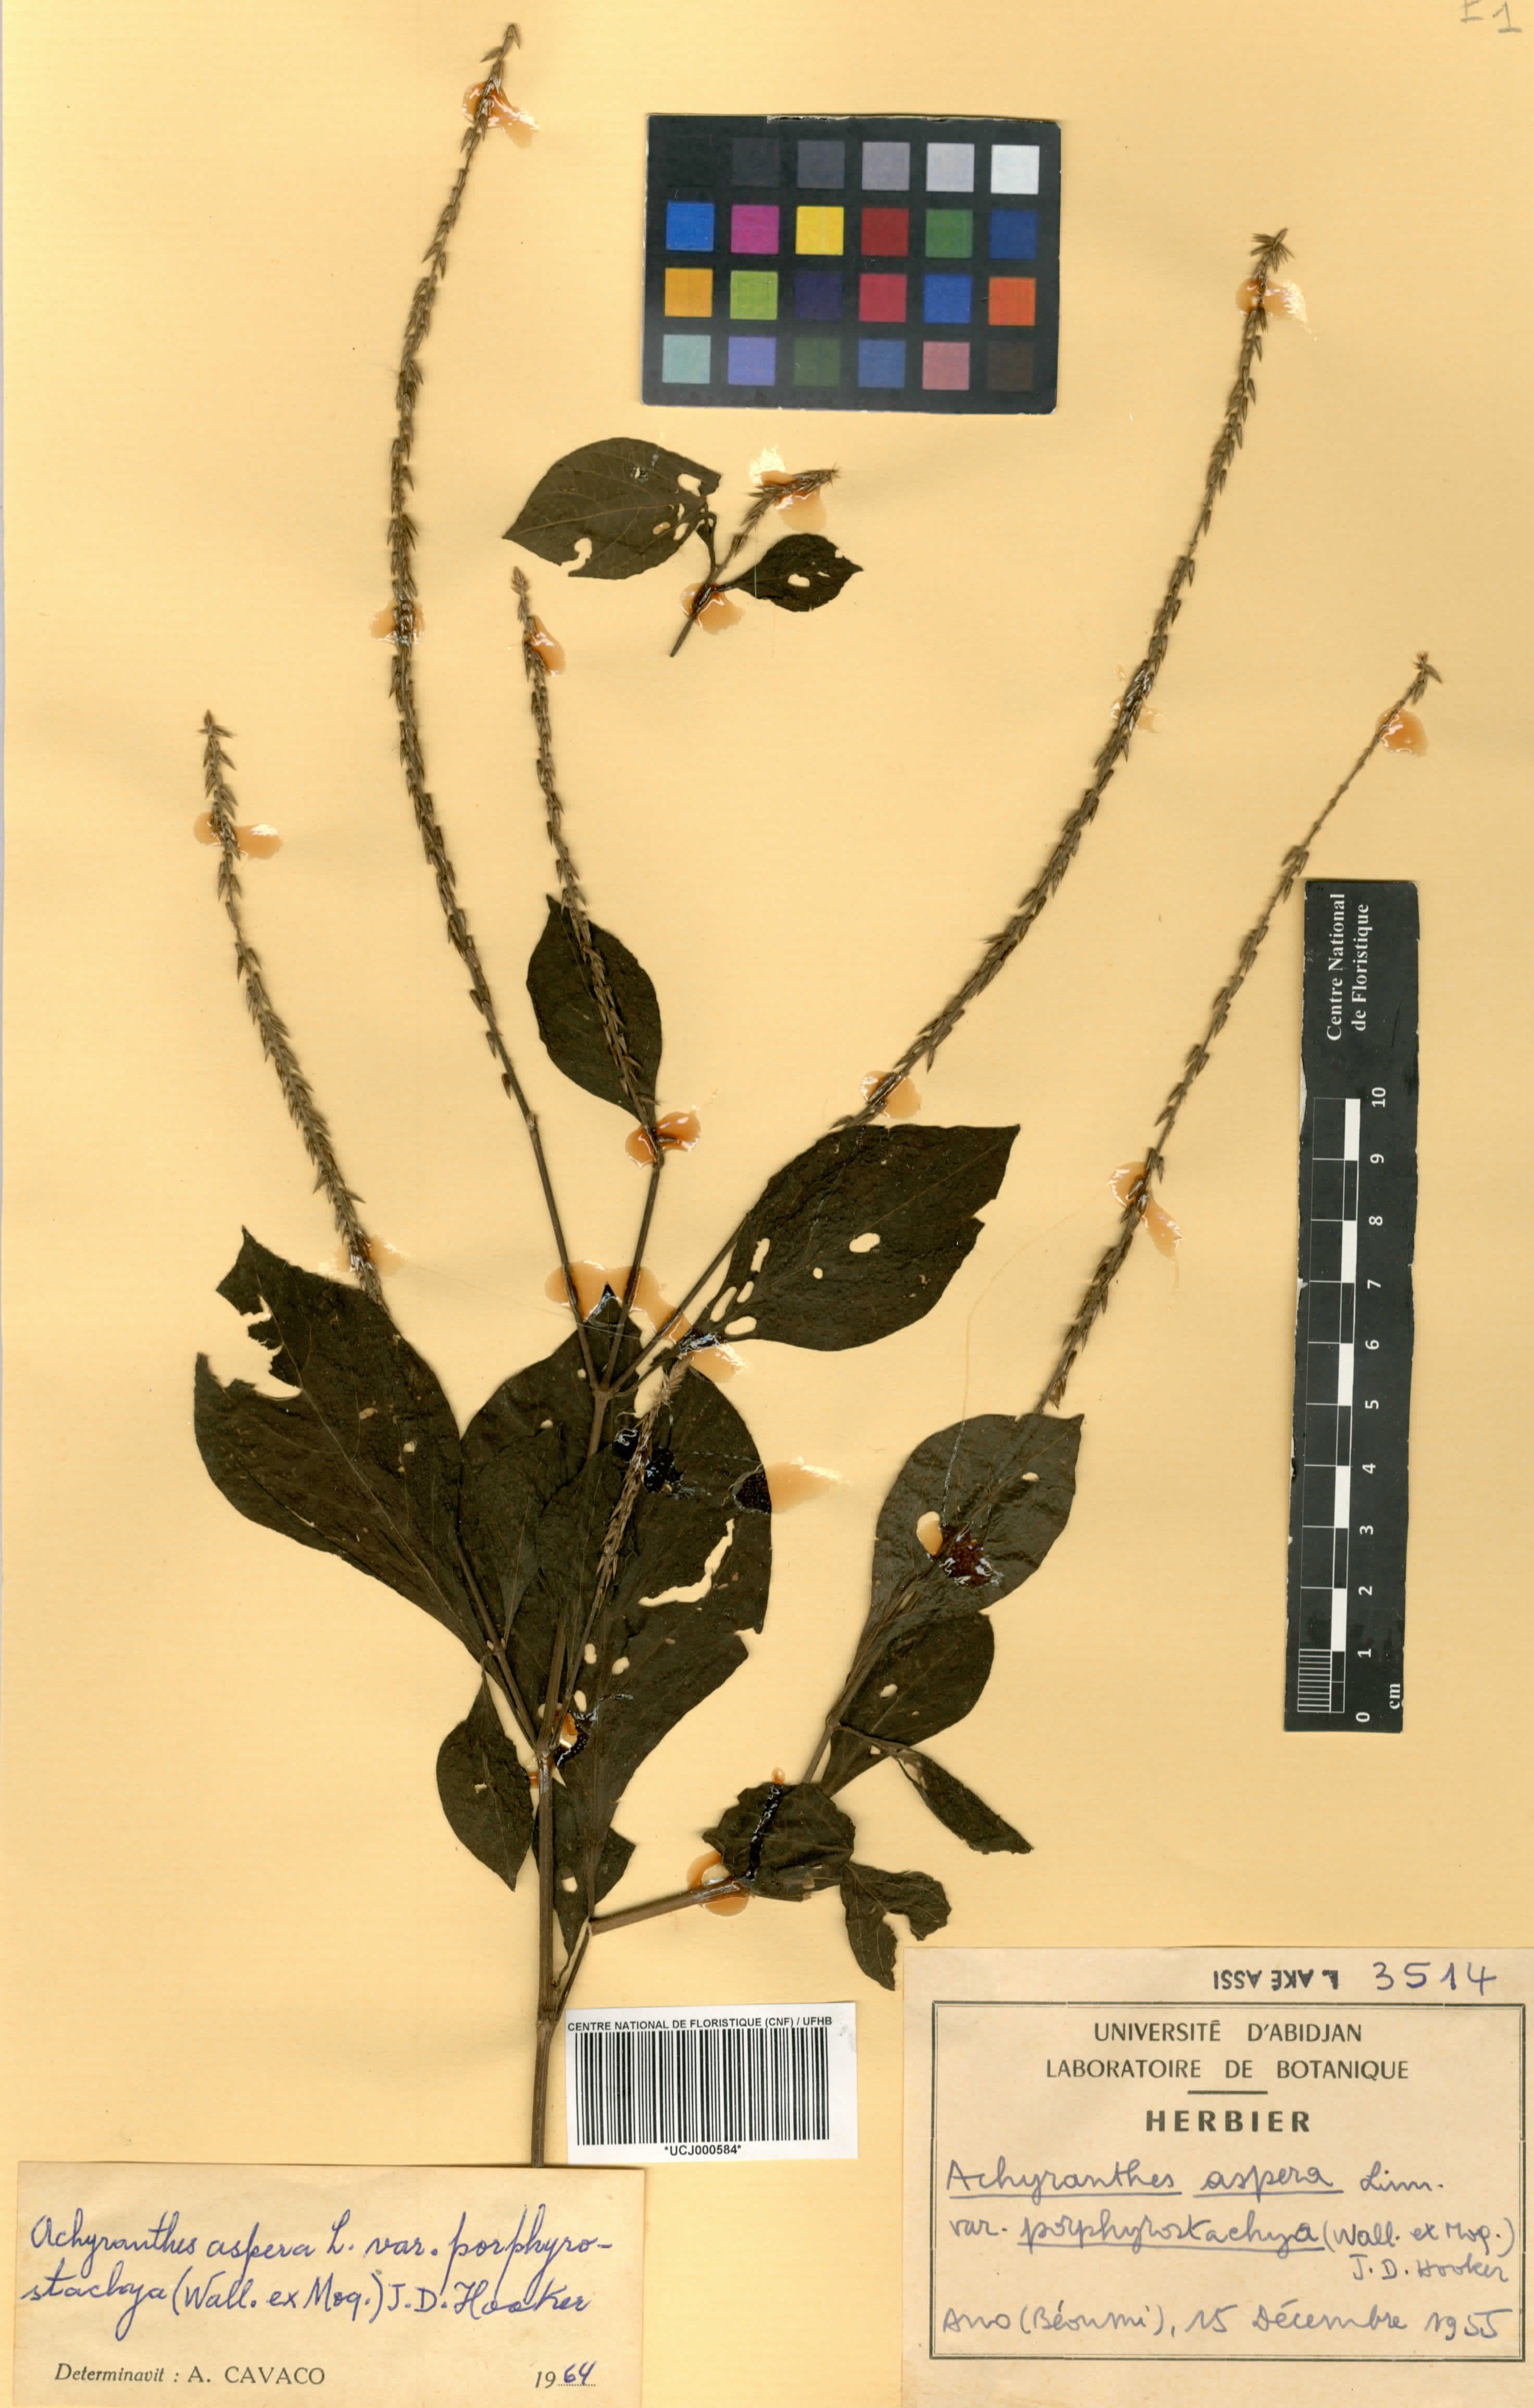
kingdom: Plantae
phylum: Tracheophyta
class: Magnoliopsida
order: Caryophyllales
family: Amaranthaceae
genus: Achyranthes
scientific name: Achyranthes aspera
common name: Devil's horsewhip
